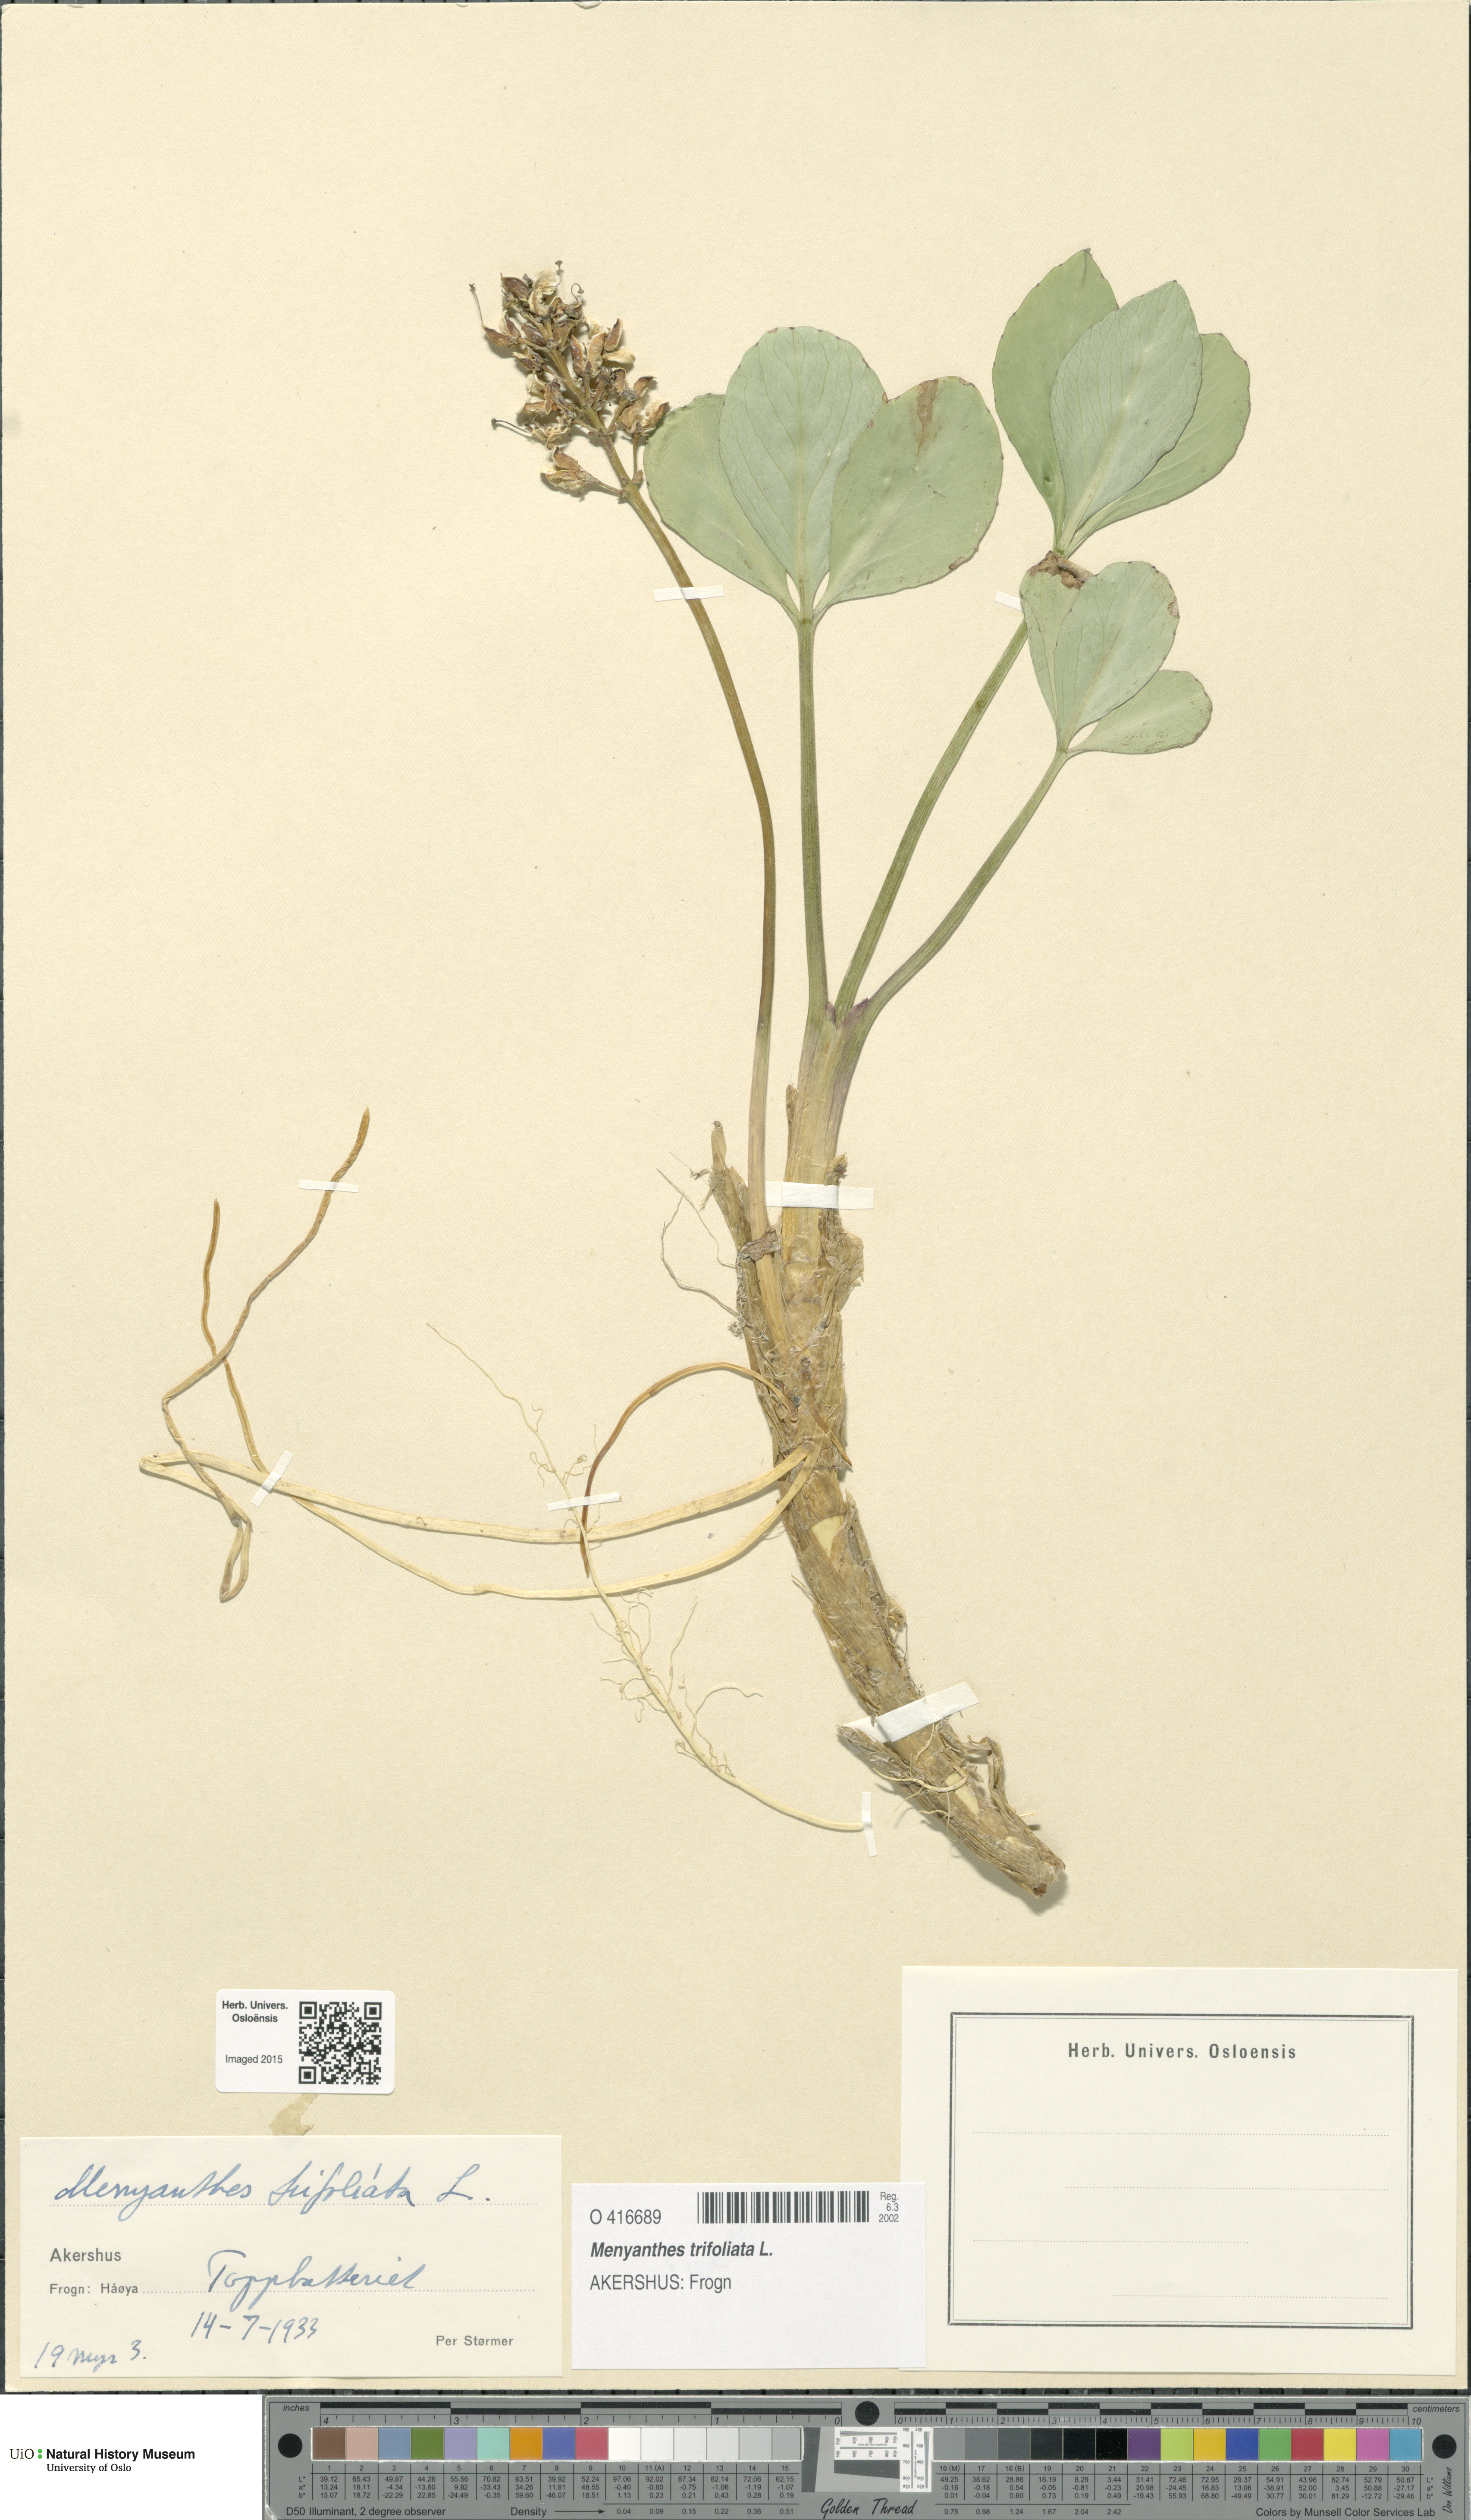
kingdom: Plantae
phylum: Tracheophyta
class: Magnoliopsida
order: Asterales
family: Menyanthaceae
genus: Menyanthes
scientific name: Menyanthes trifoliata
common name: Bogbean
